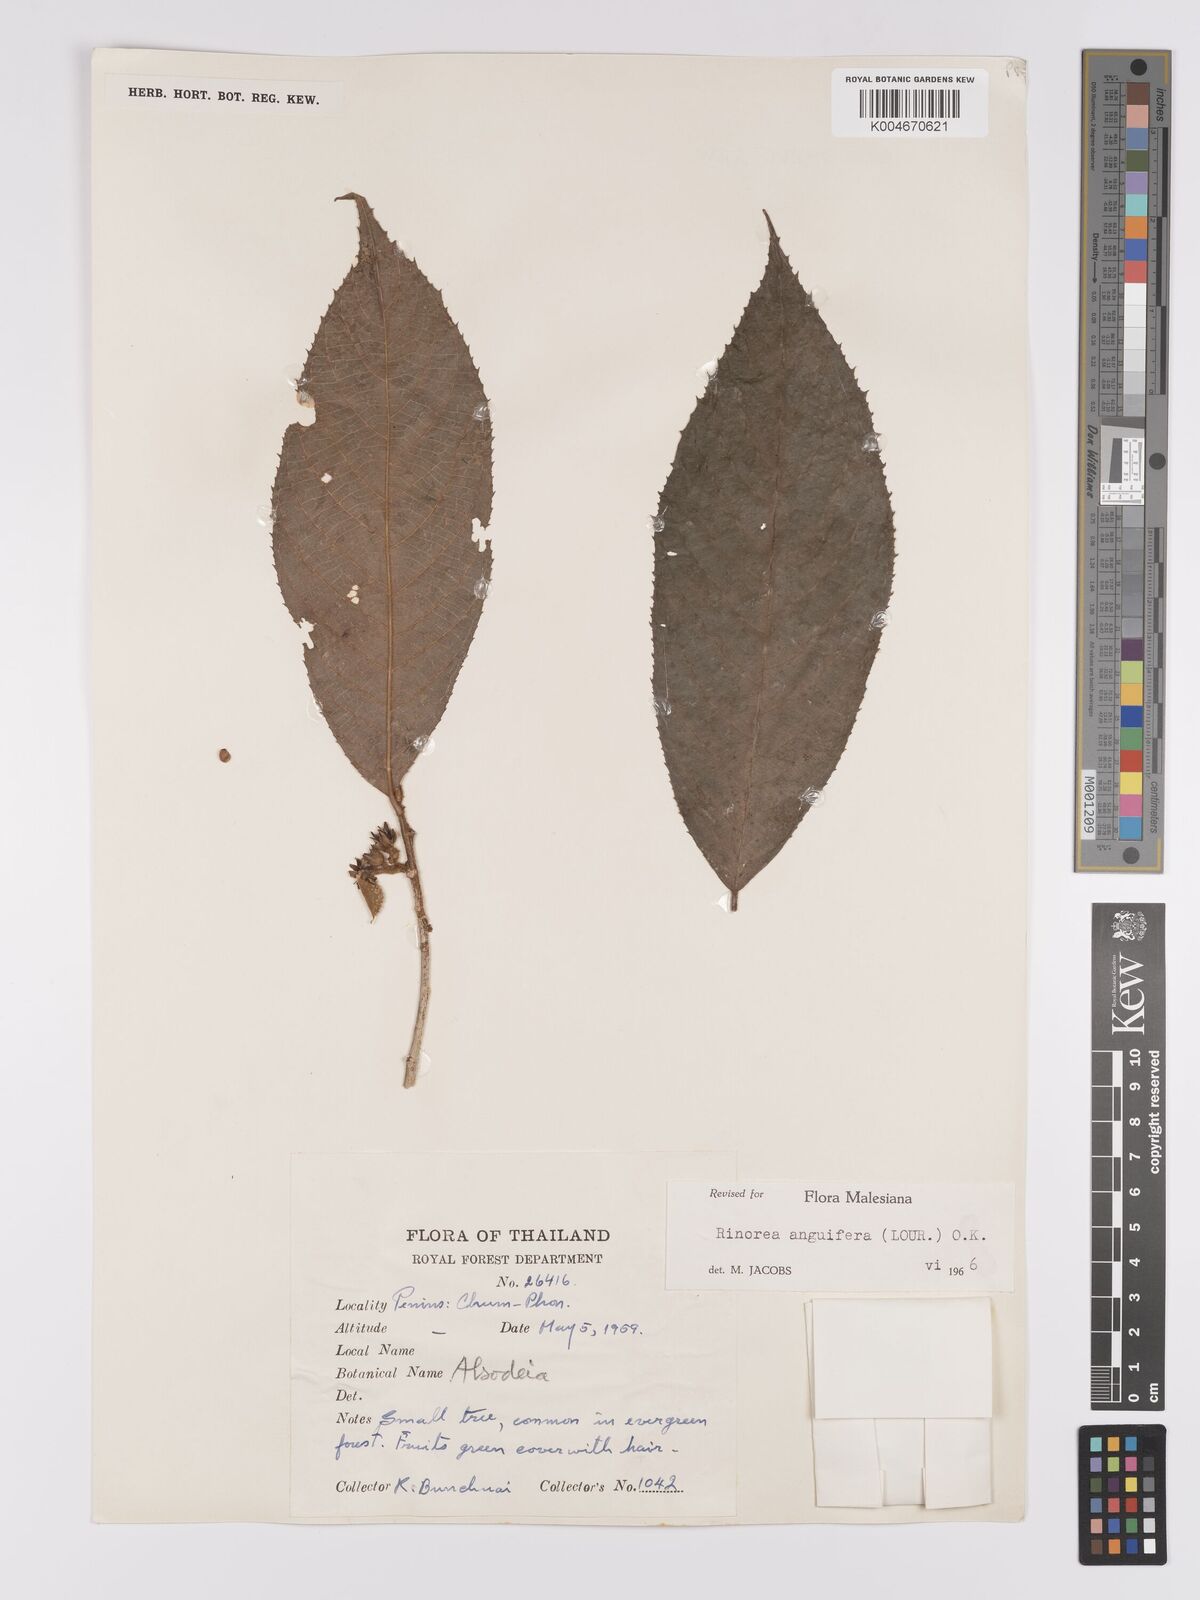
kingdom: Plantae
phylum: Tracheophyta
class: Magnoliopsida
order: Malpighiales
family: Violaceae
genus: Rinorea
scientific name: Rinorea anguifera
